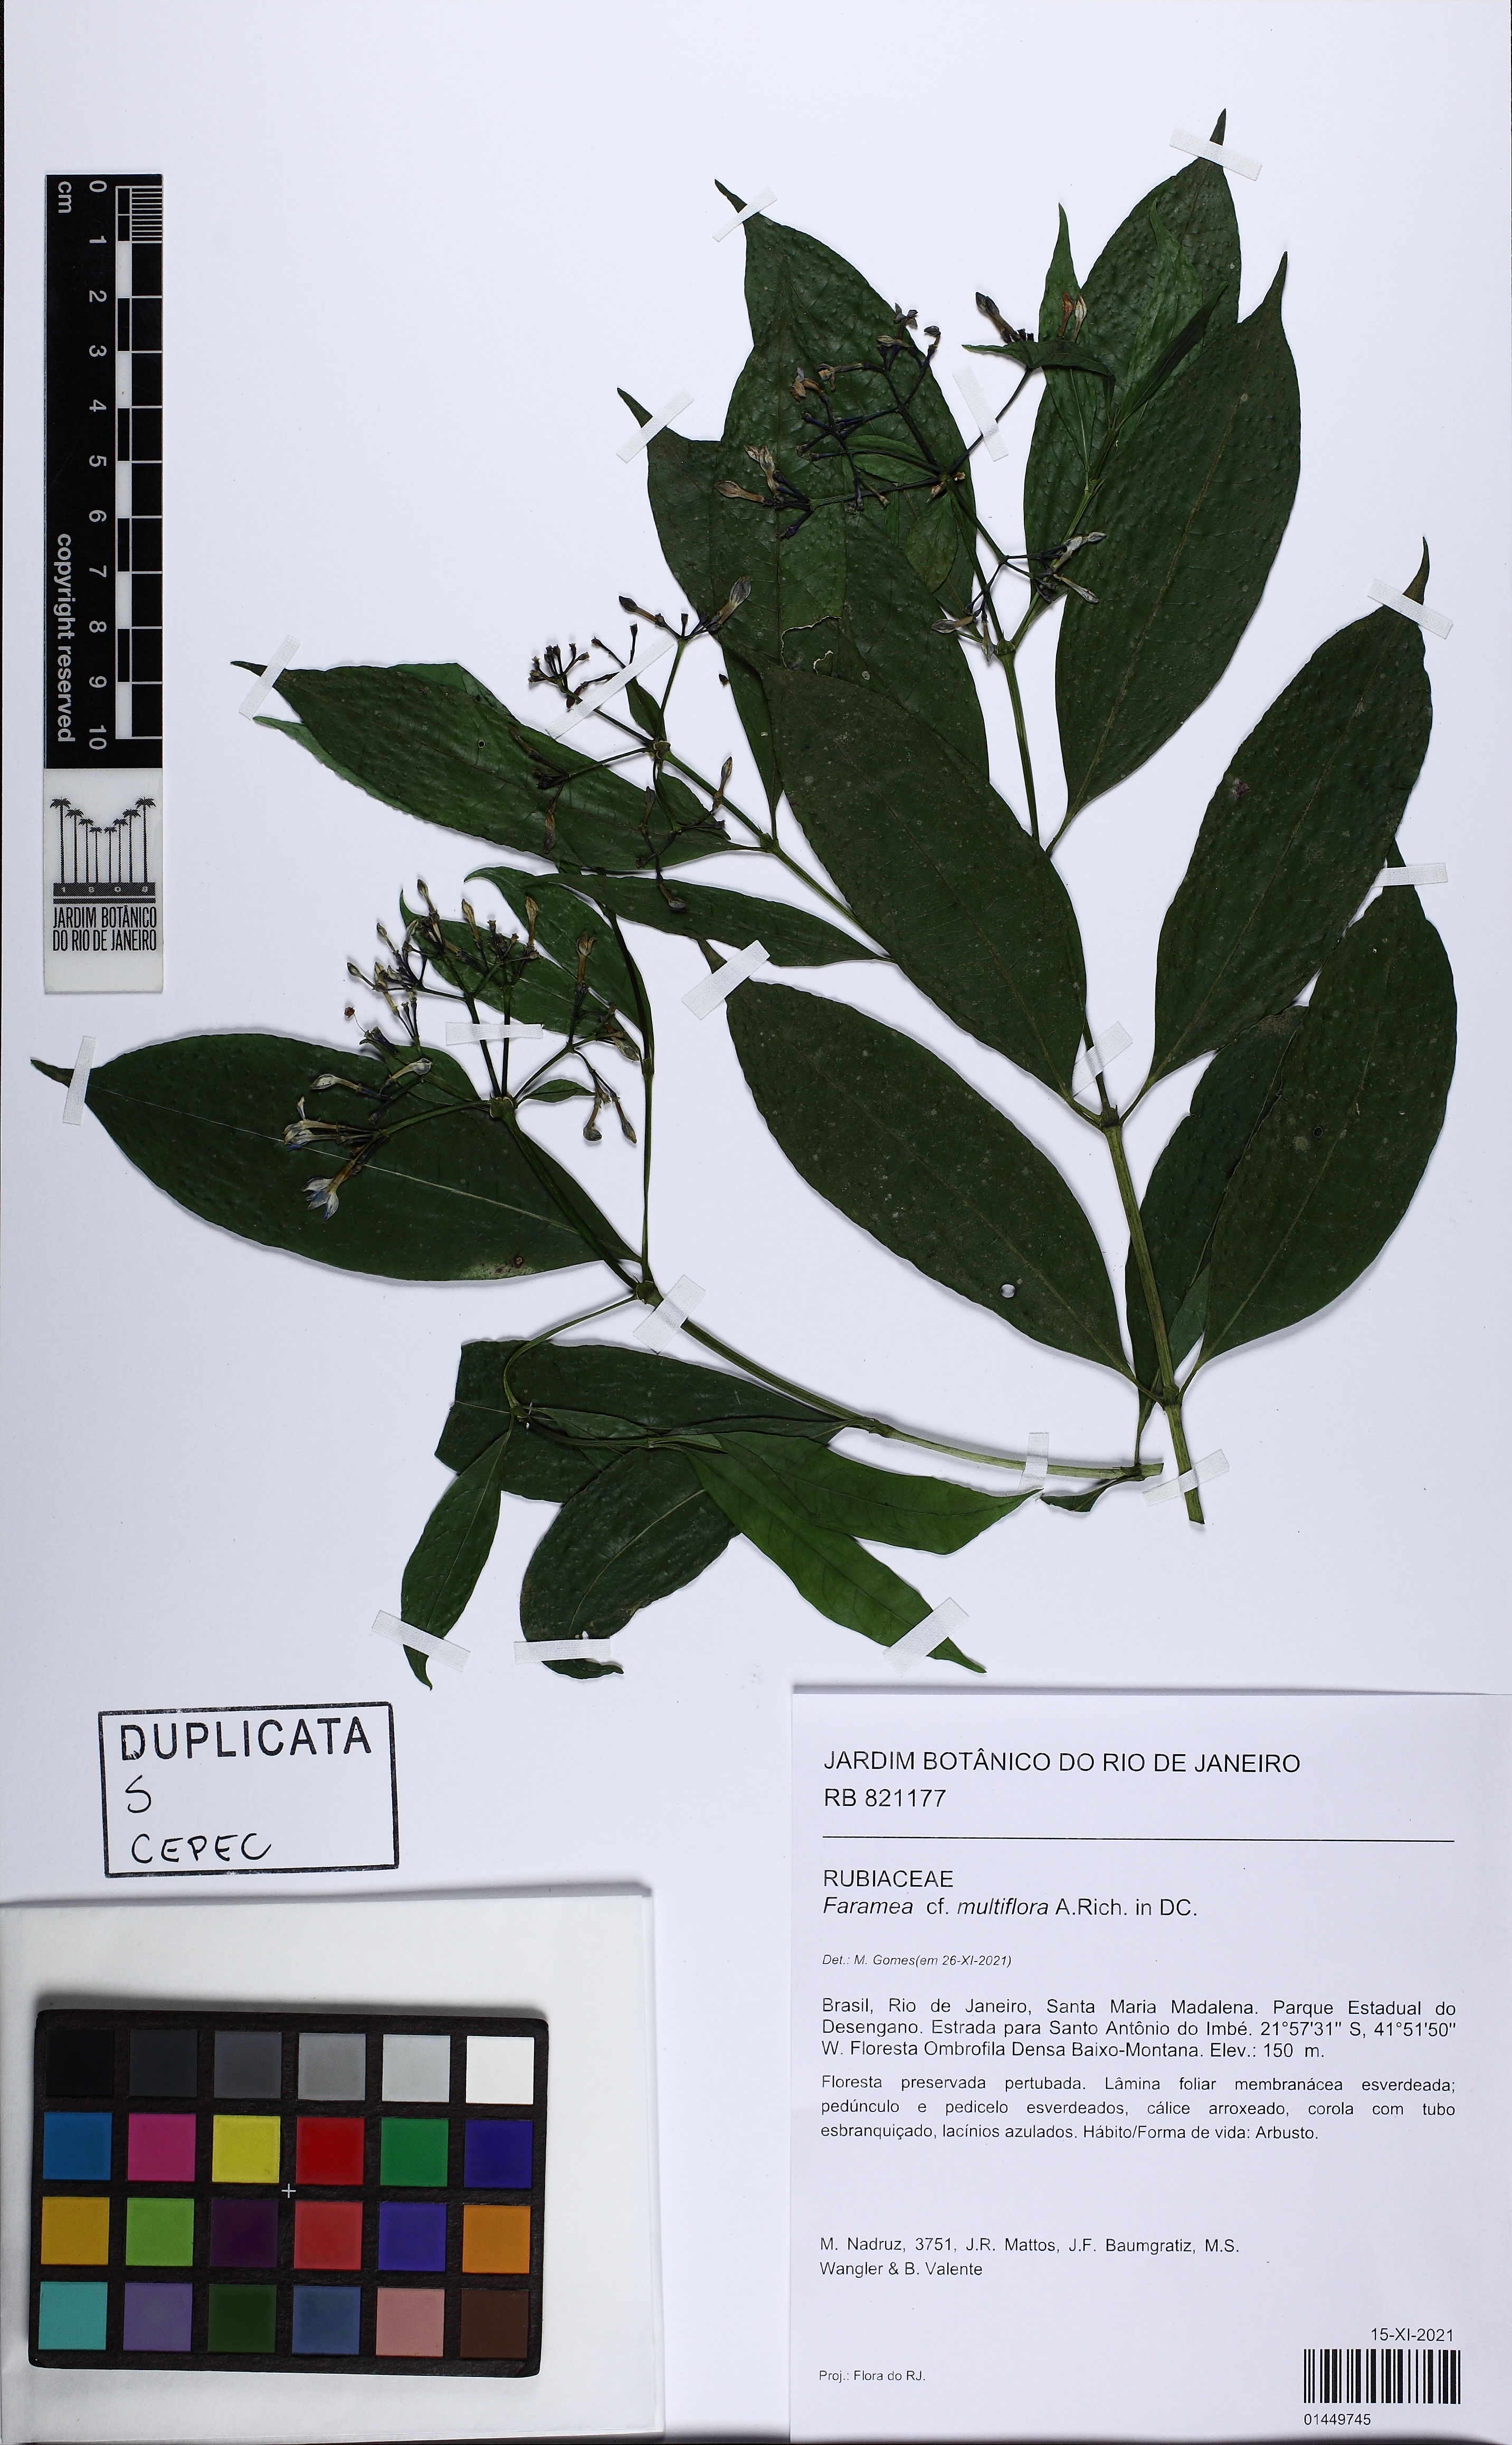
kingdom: Plantae
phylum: Tracheophyta
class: Magnoliopsida
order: Gentianales
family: Rubiaceae
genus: Faramea
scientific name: Faramea multiflora
